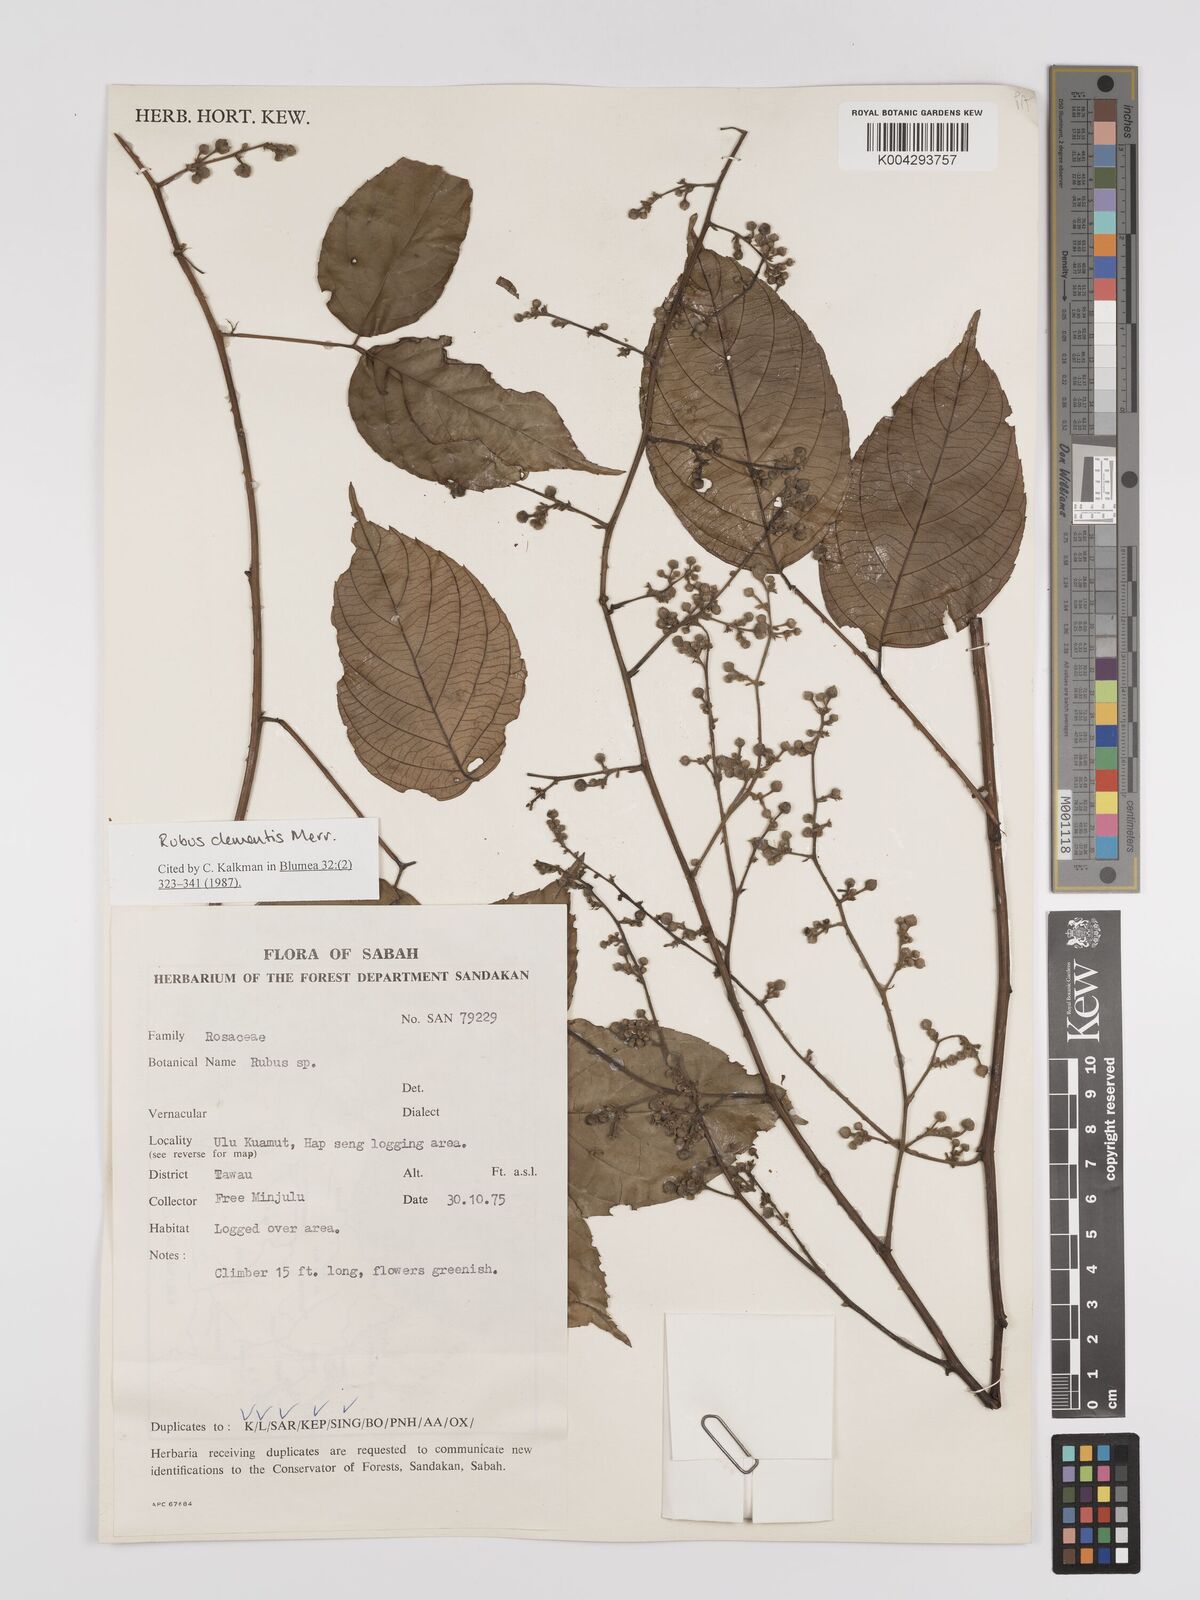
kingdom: Plantae
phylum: Tracheophyta
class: Magnoliopsida
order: Rosales
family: Rosaceae
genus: Rubus
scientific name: Rubus clementis
